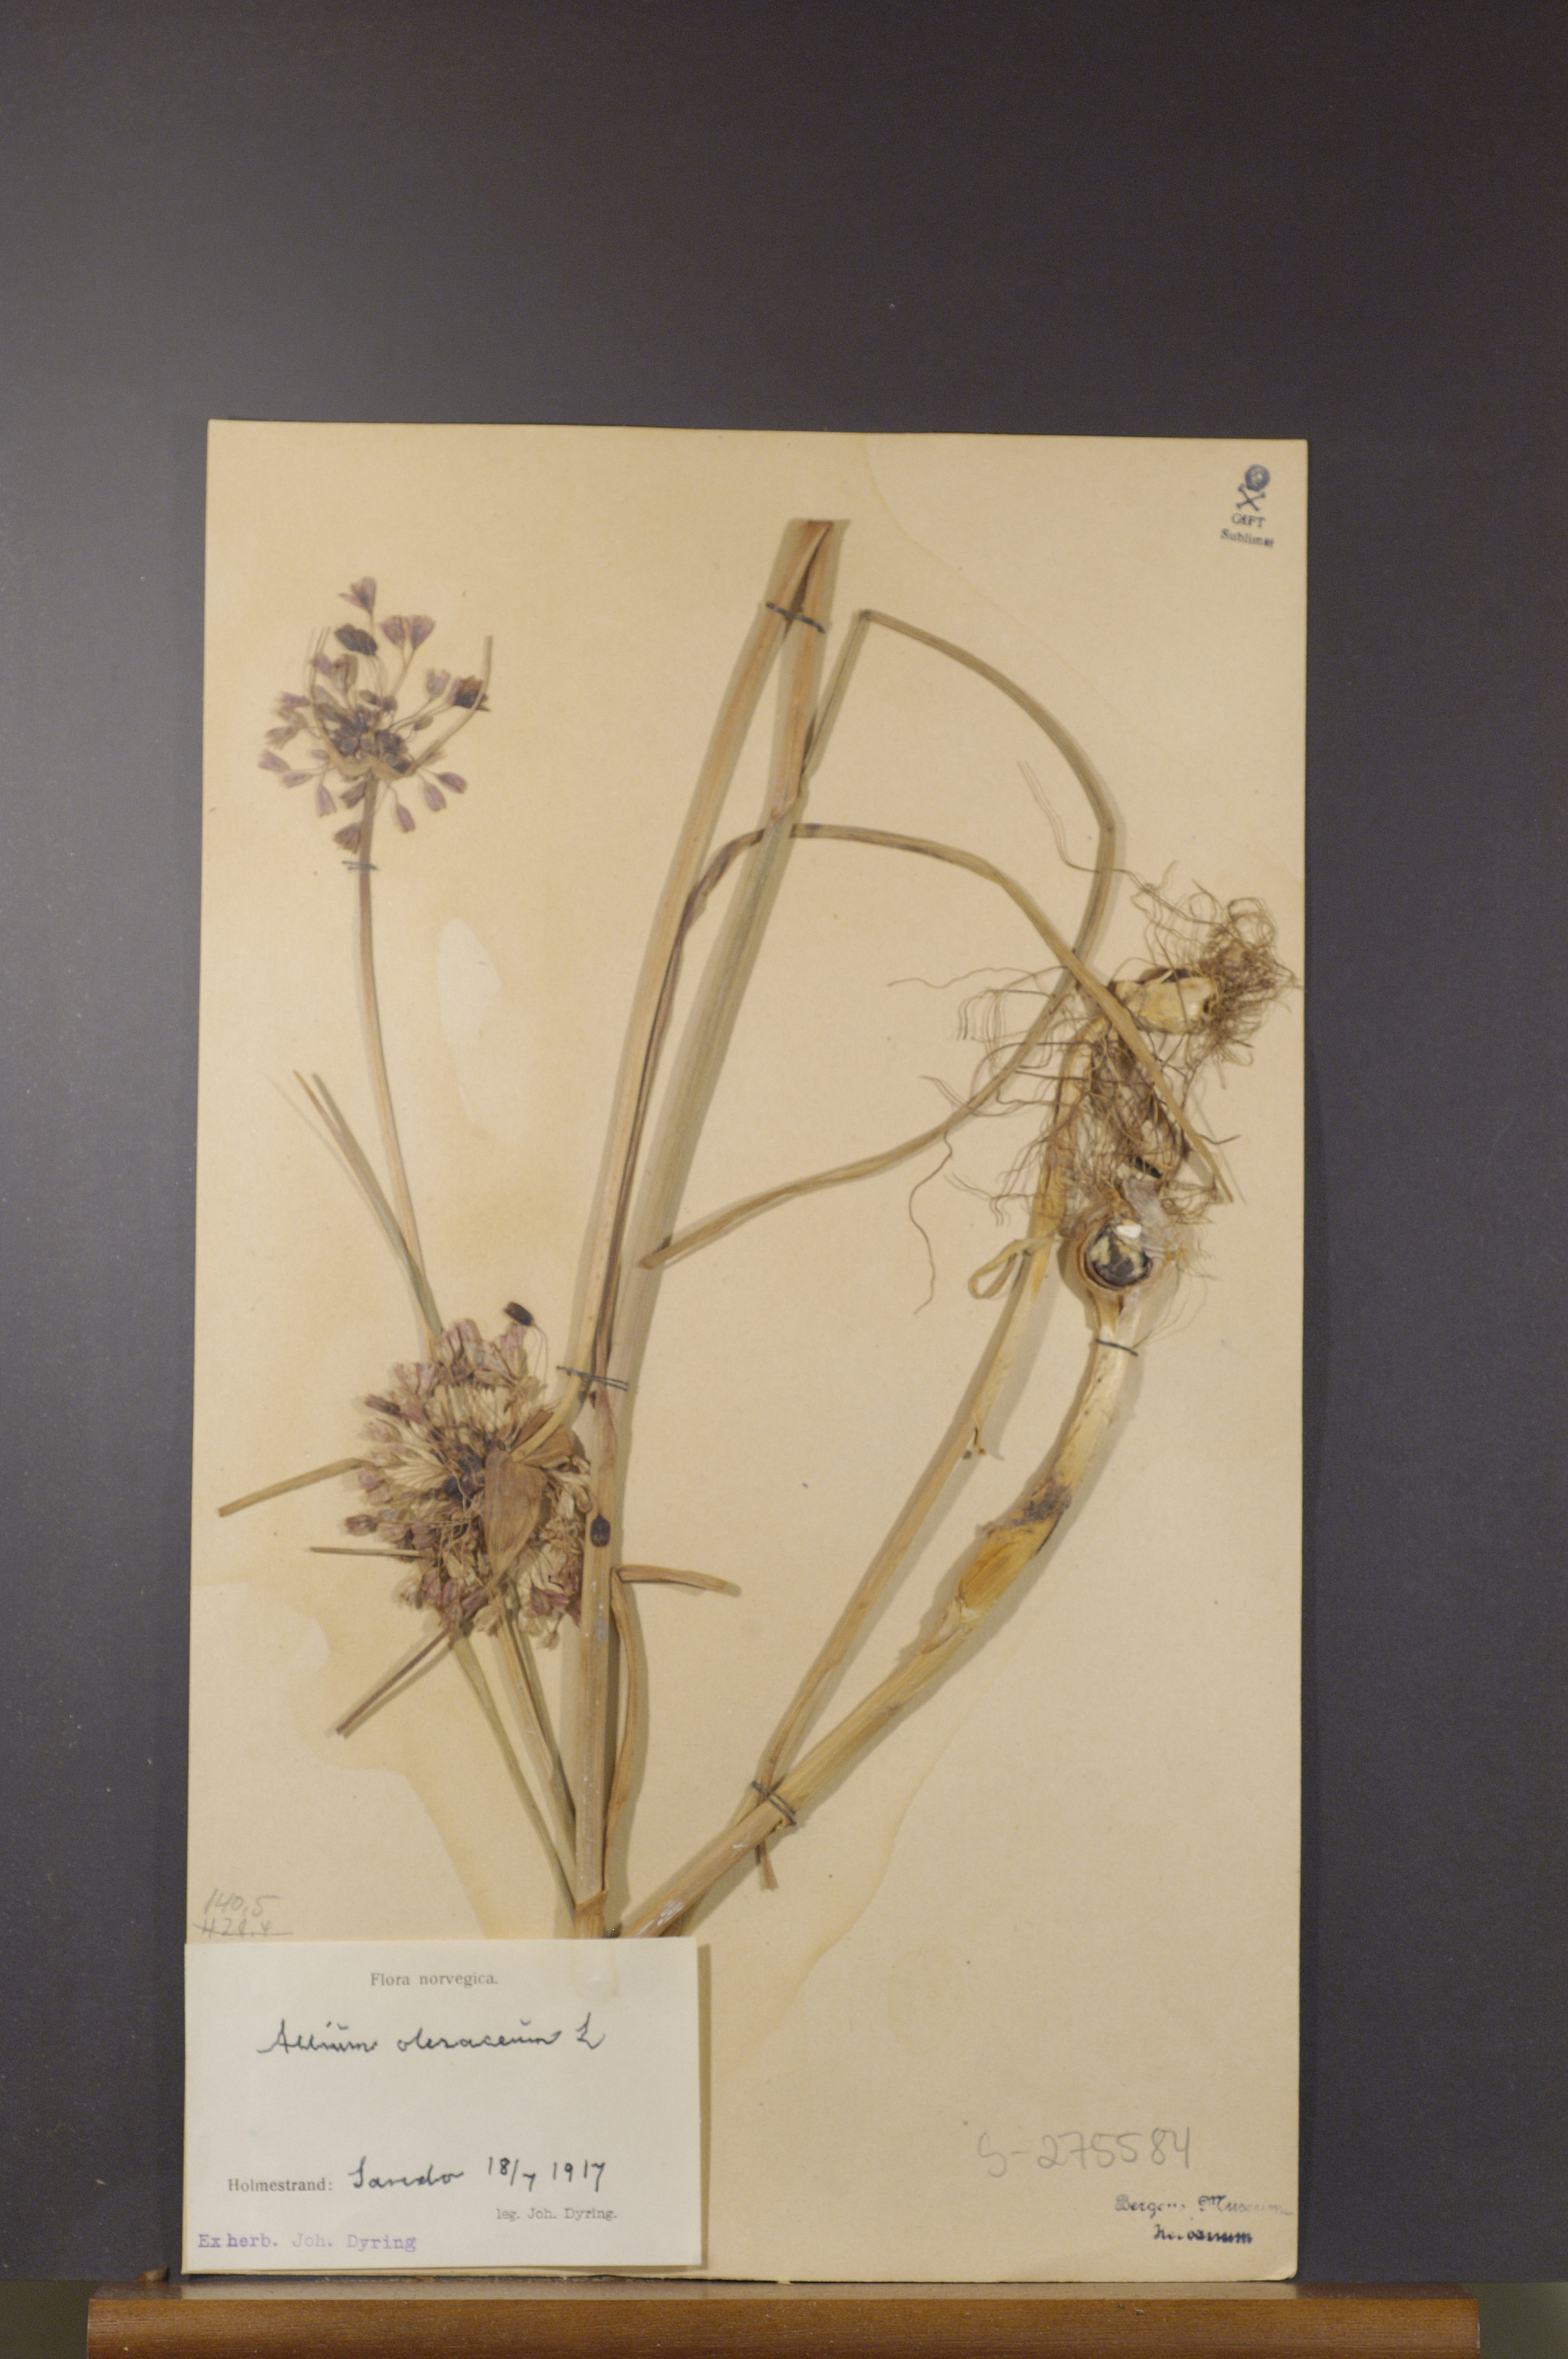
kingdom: Plantae
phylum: Tracheophyta
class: Liliopsida
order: Asparagales
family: Amaryllidaceae
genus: Allium
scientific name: Allium oleraceum
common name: Field garlic
